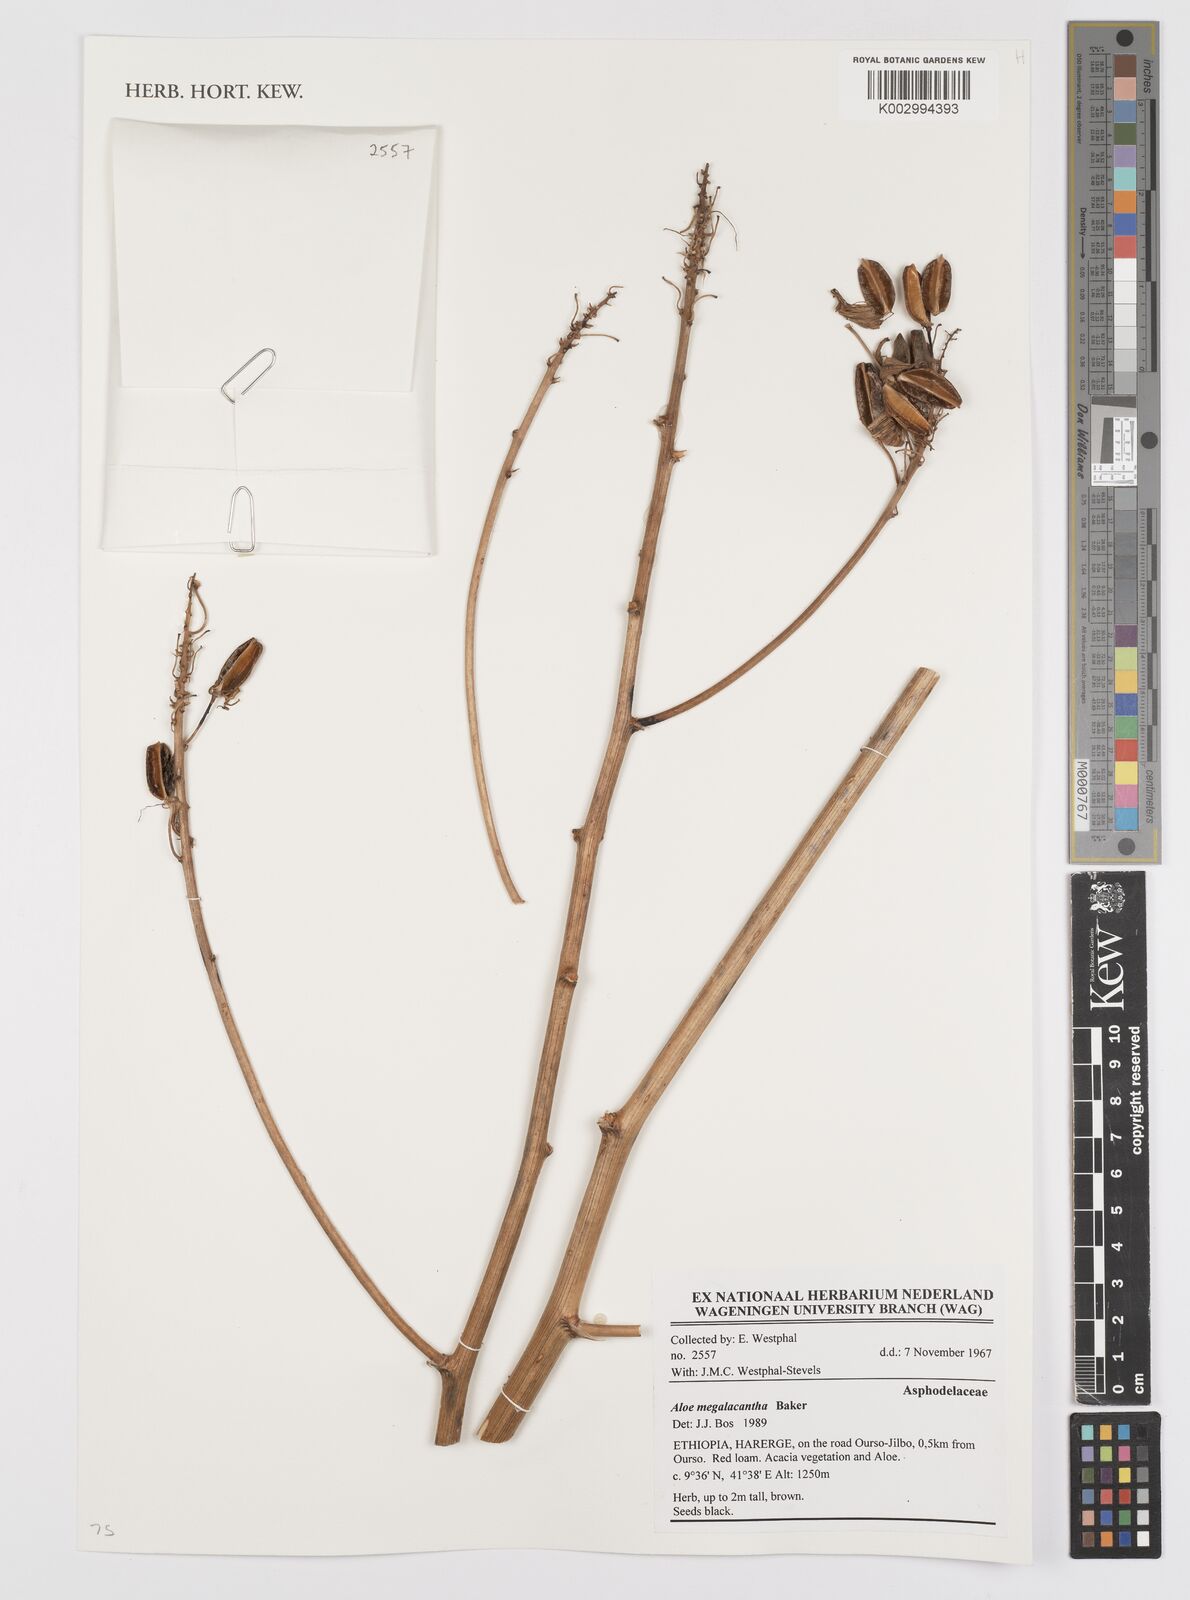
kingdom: Plantae
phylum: Tracheophyta
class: Liliopsida
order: Asparagales
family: Asphodelaceae
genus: Aloe
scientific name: Aloe megalacantha
